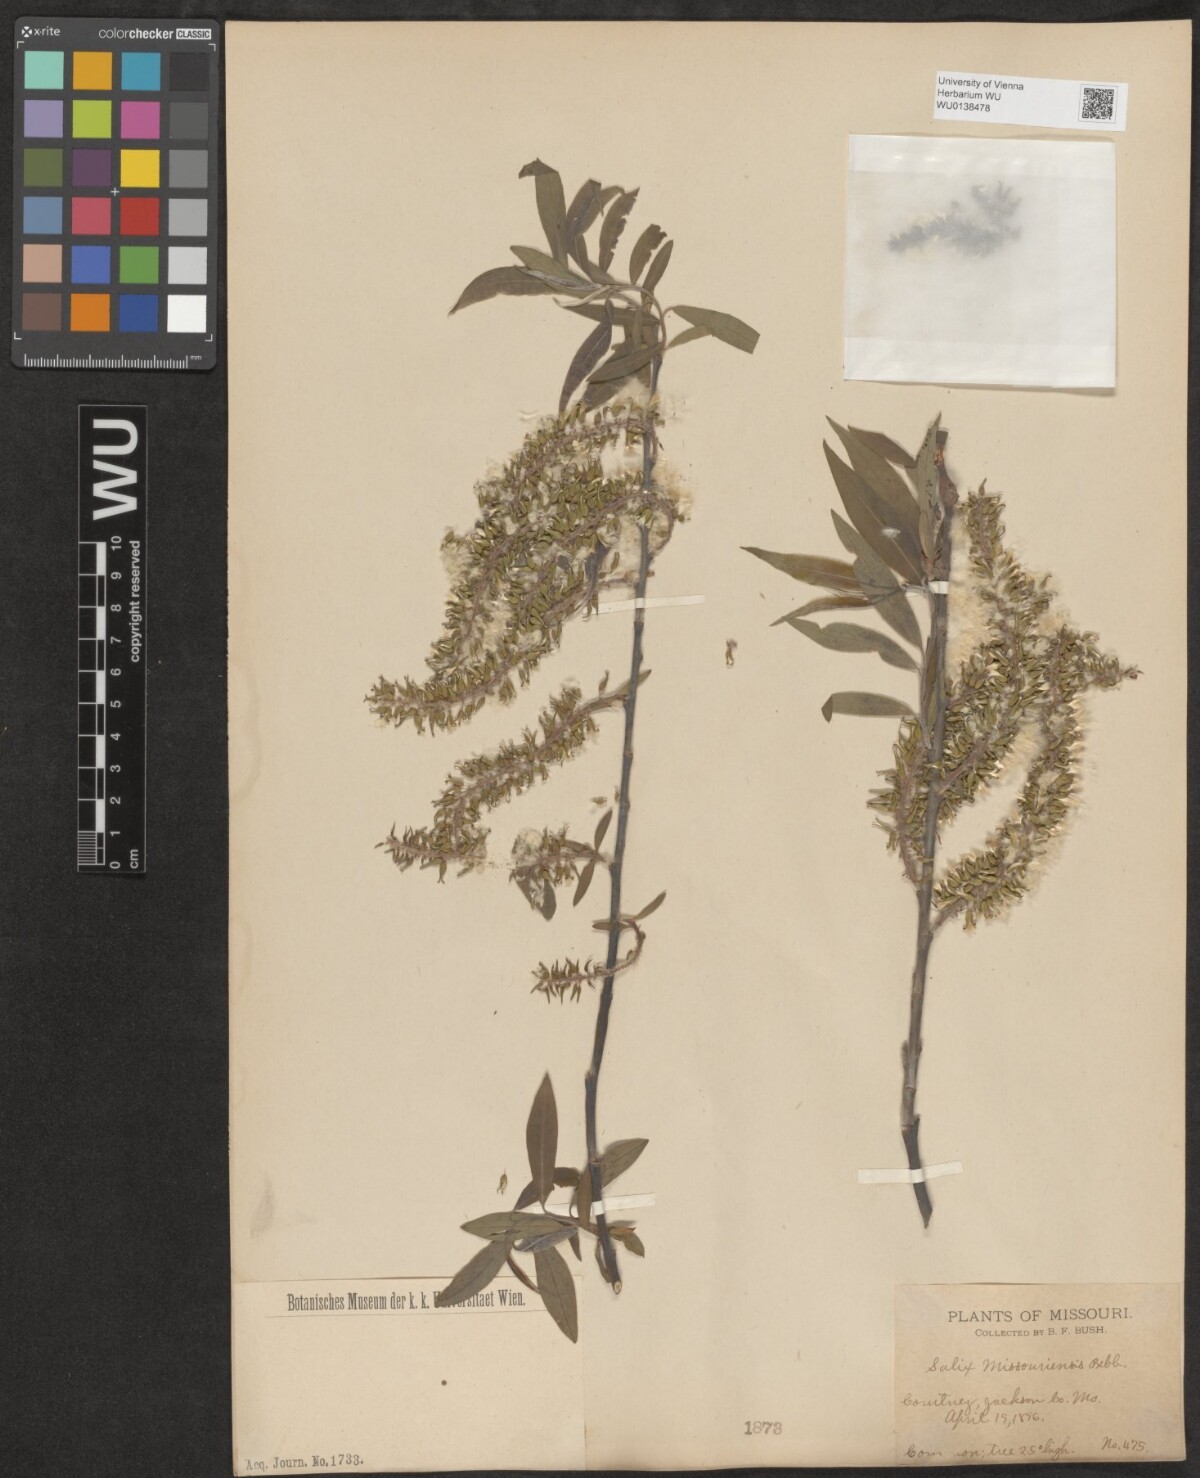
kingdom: Plantae
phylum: Tracheophyta
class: Magnoliopsida
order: Malpighiales
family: Salicaceae
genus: Salix
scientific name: Salix eriocephala
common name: Heart-leaved willow
